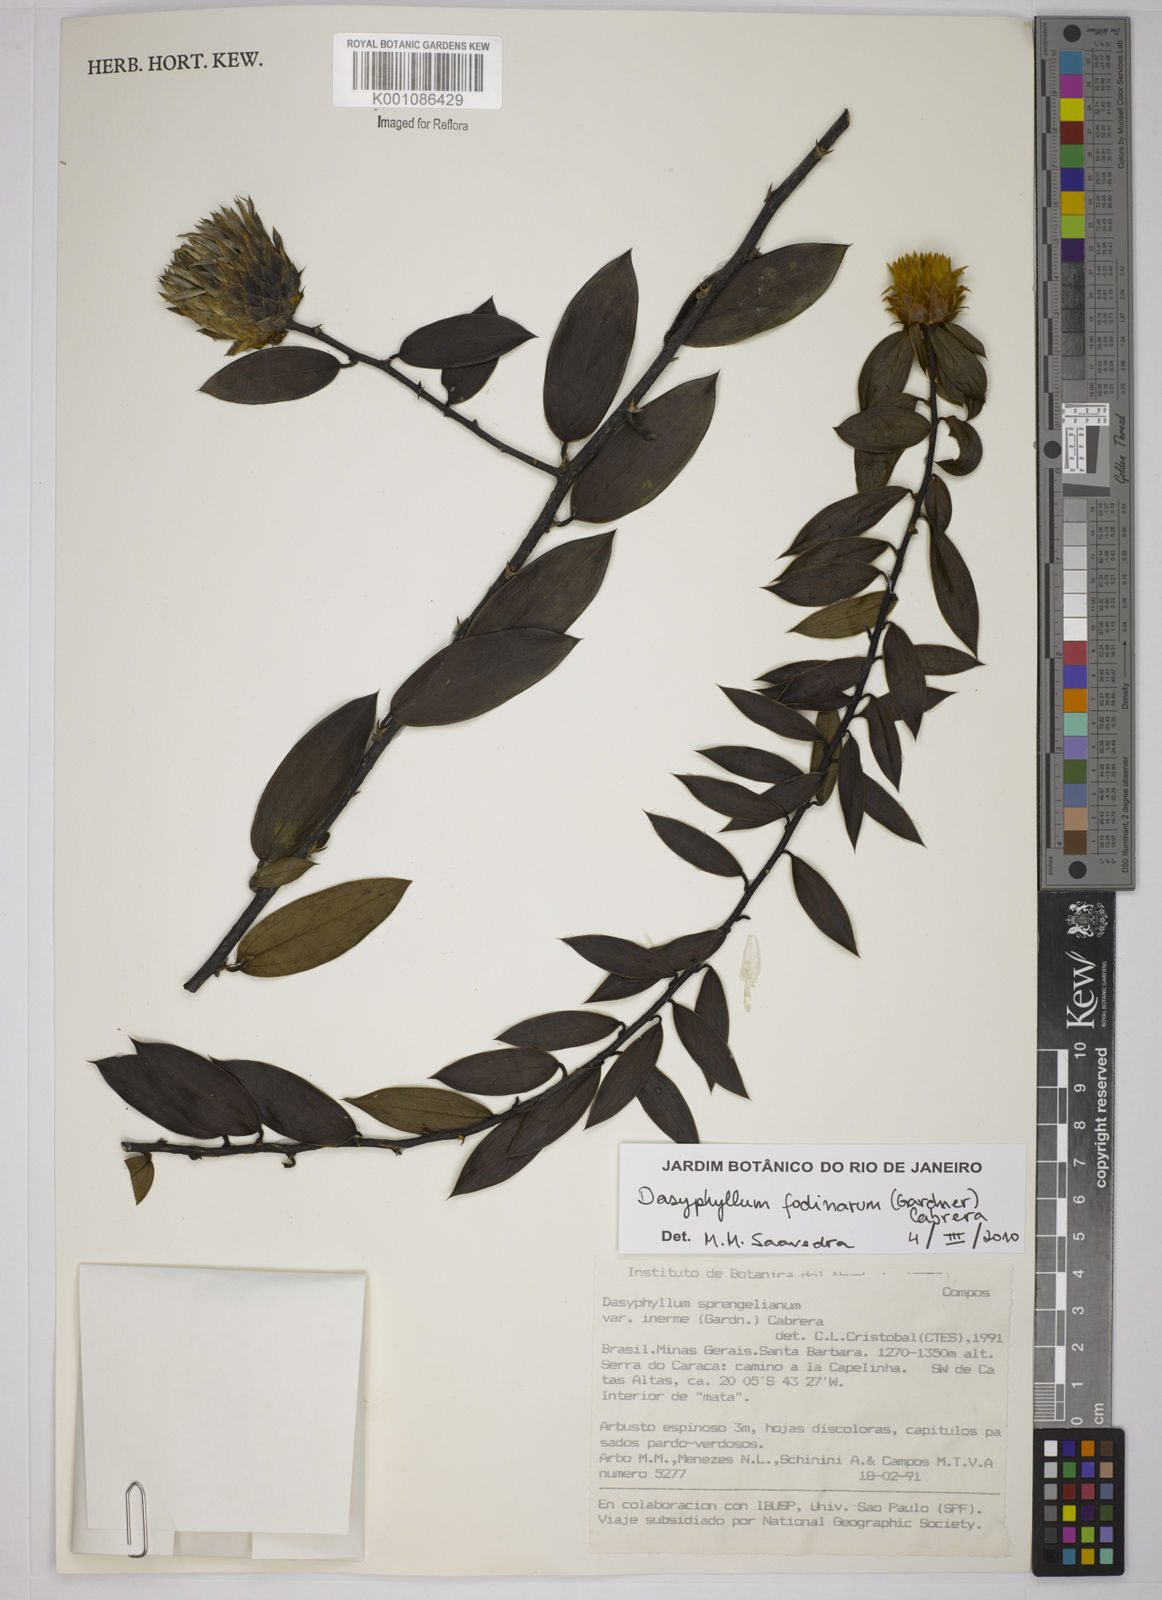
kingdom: Plantae
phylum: Tracheophyta
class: Magnoliopsida
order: Asterales
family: Asteraceae
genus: Dasyphyllum
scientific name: Dasyphyllum fodinarum
